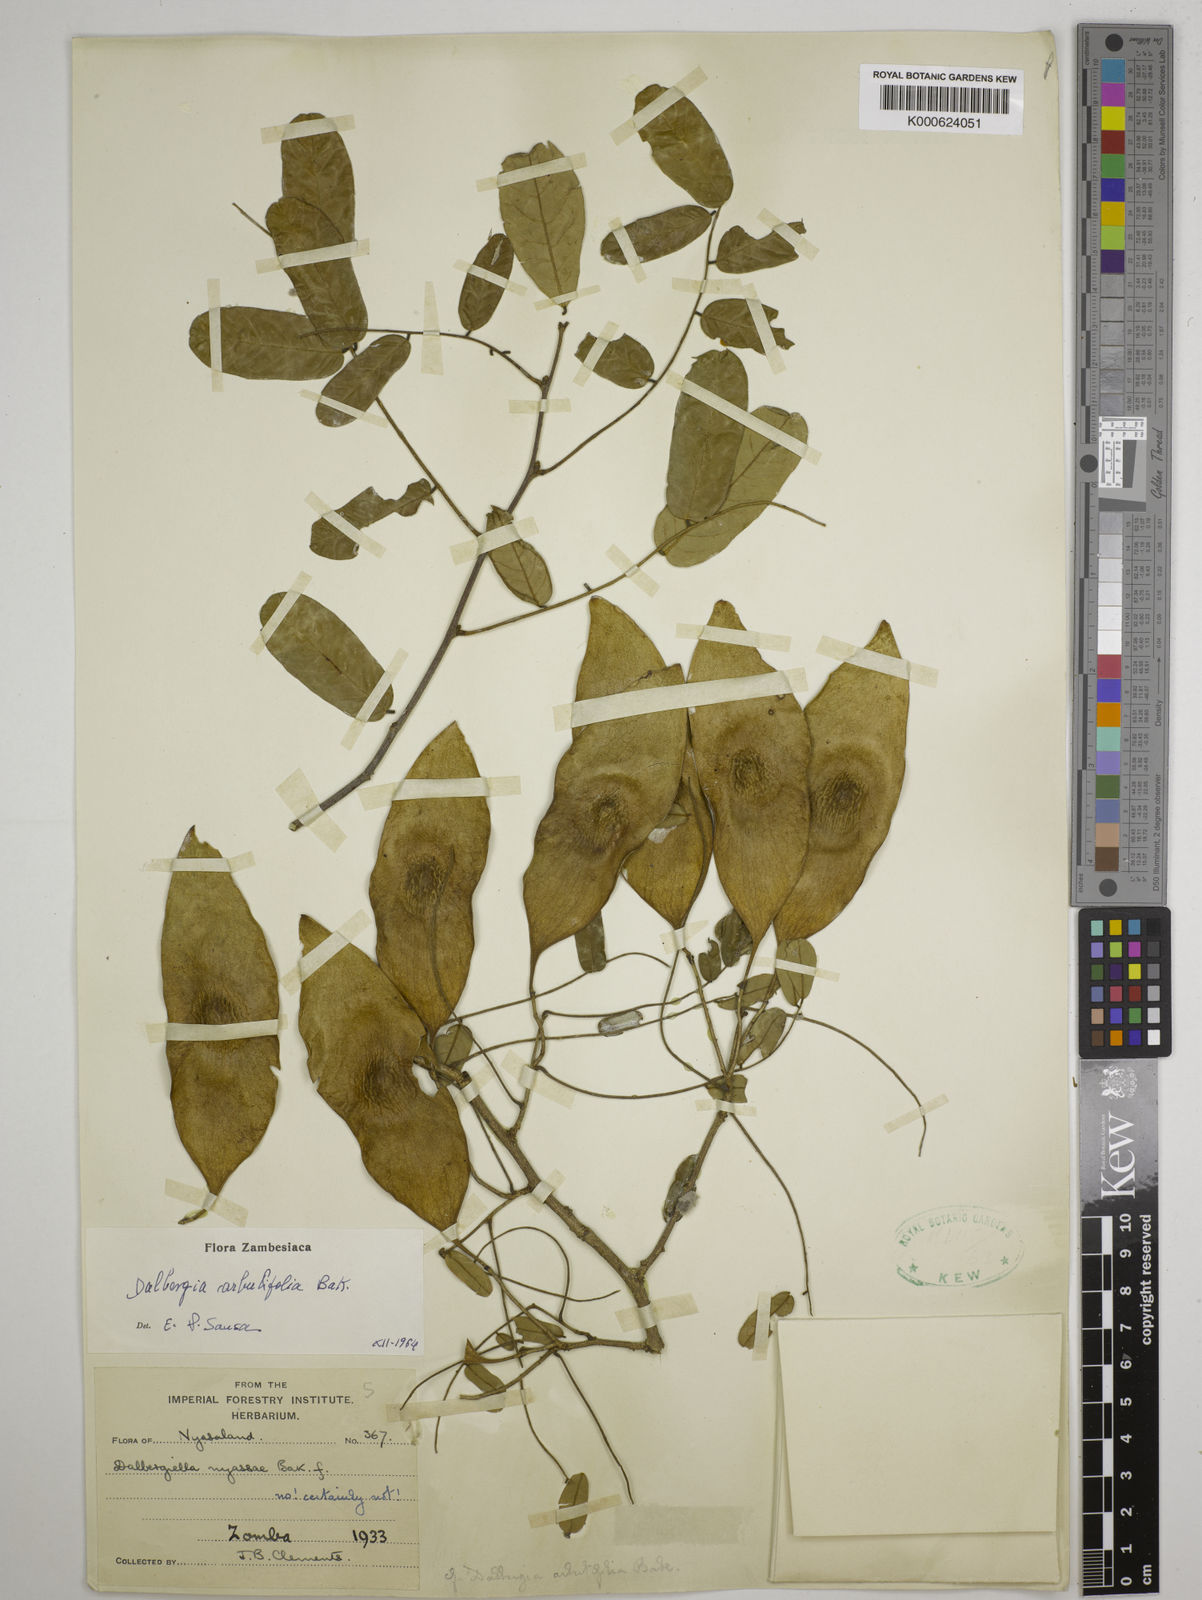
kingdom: Plantae
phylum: Tracheophyta
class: Magnoliopsida
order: Fabales
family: Fabaceae
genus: Dalbergia
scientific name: Dalbergia arbutifolia
